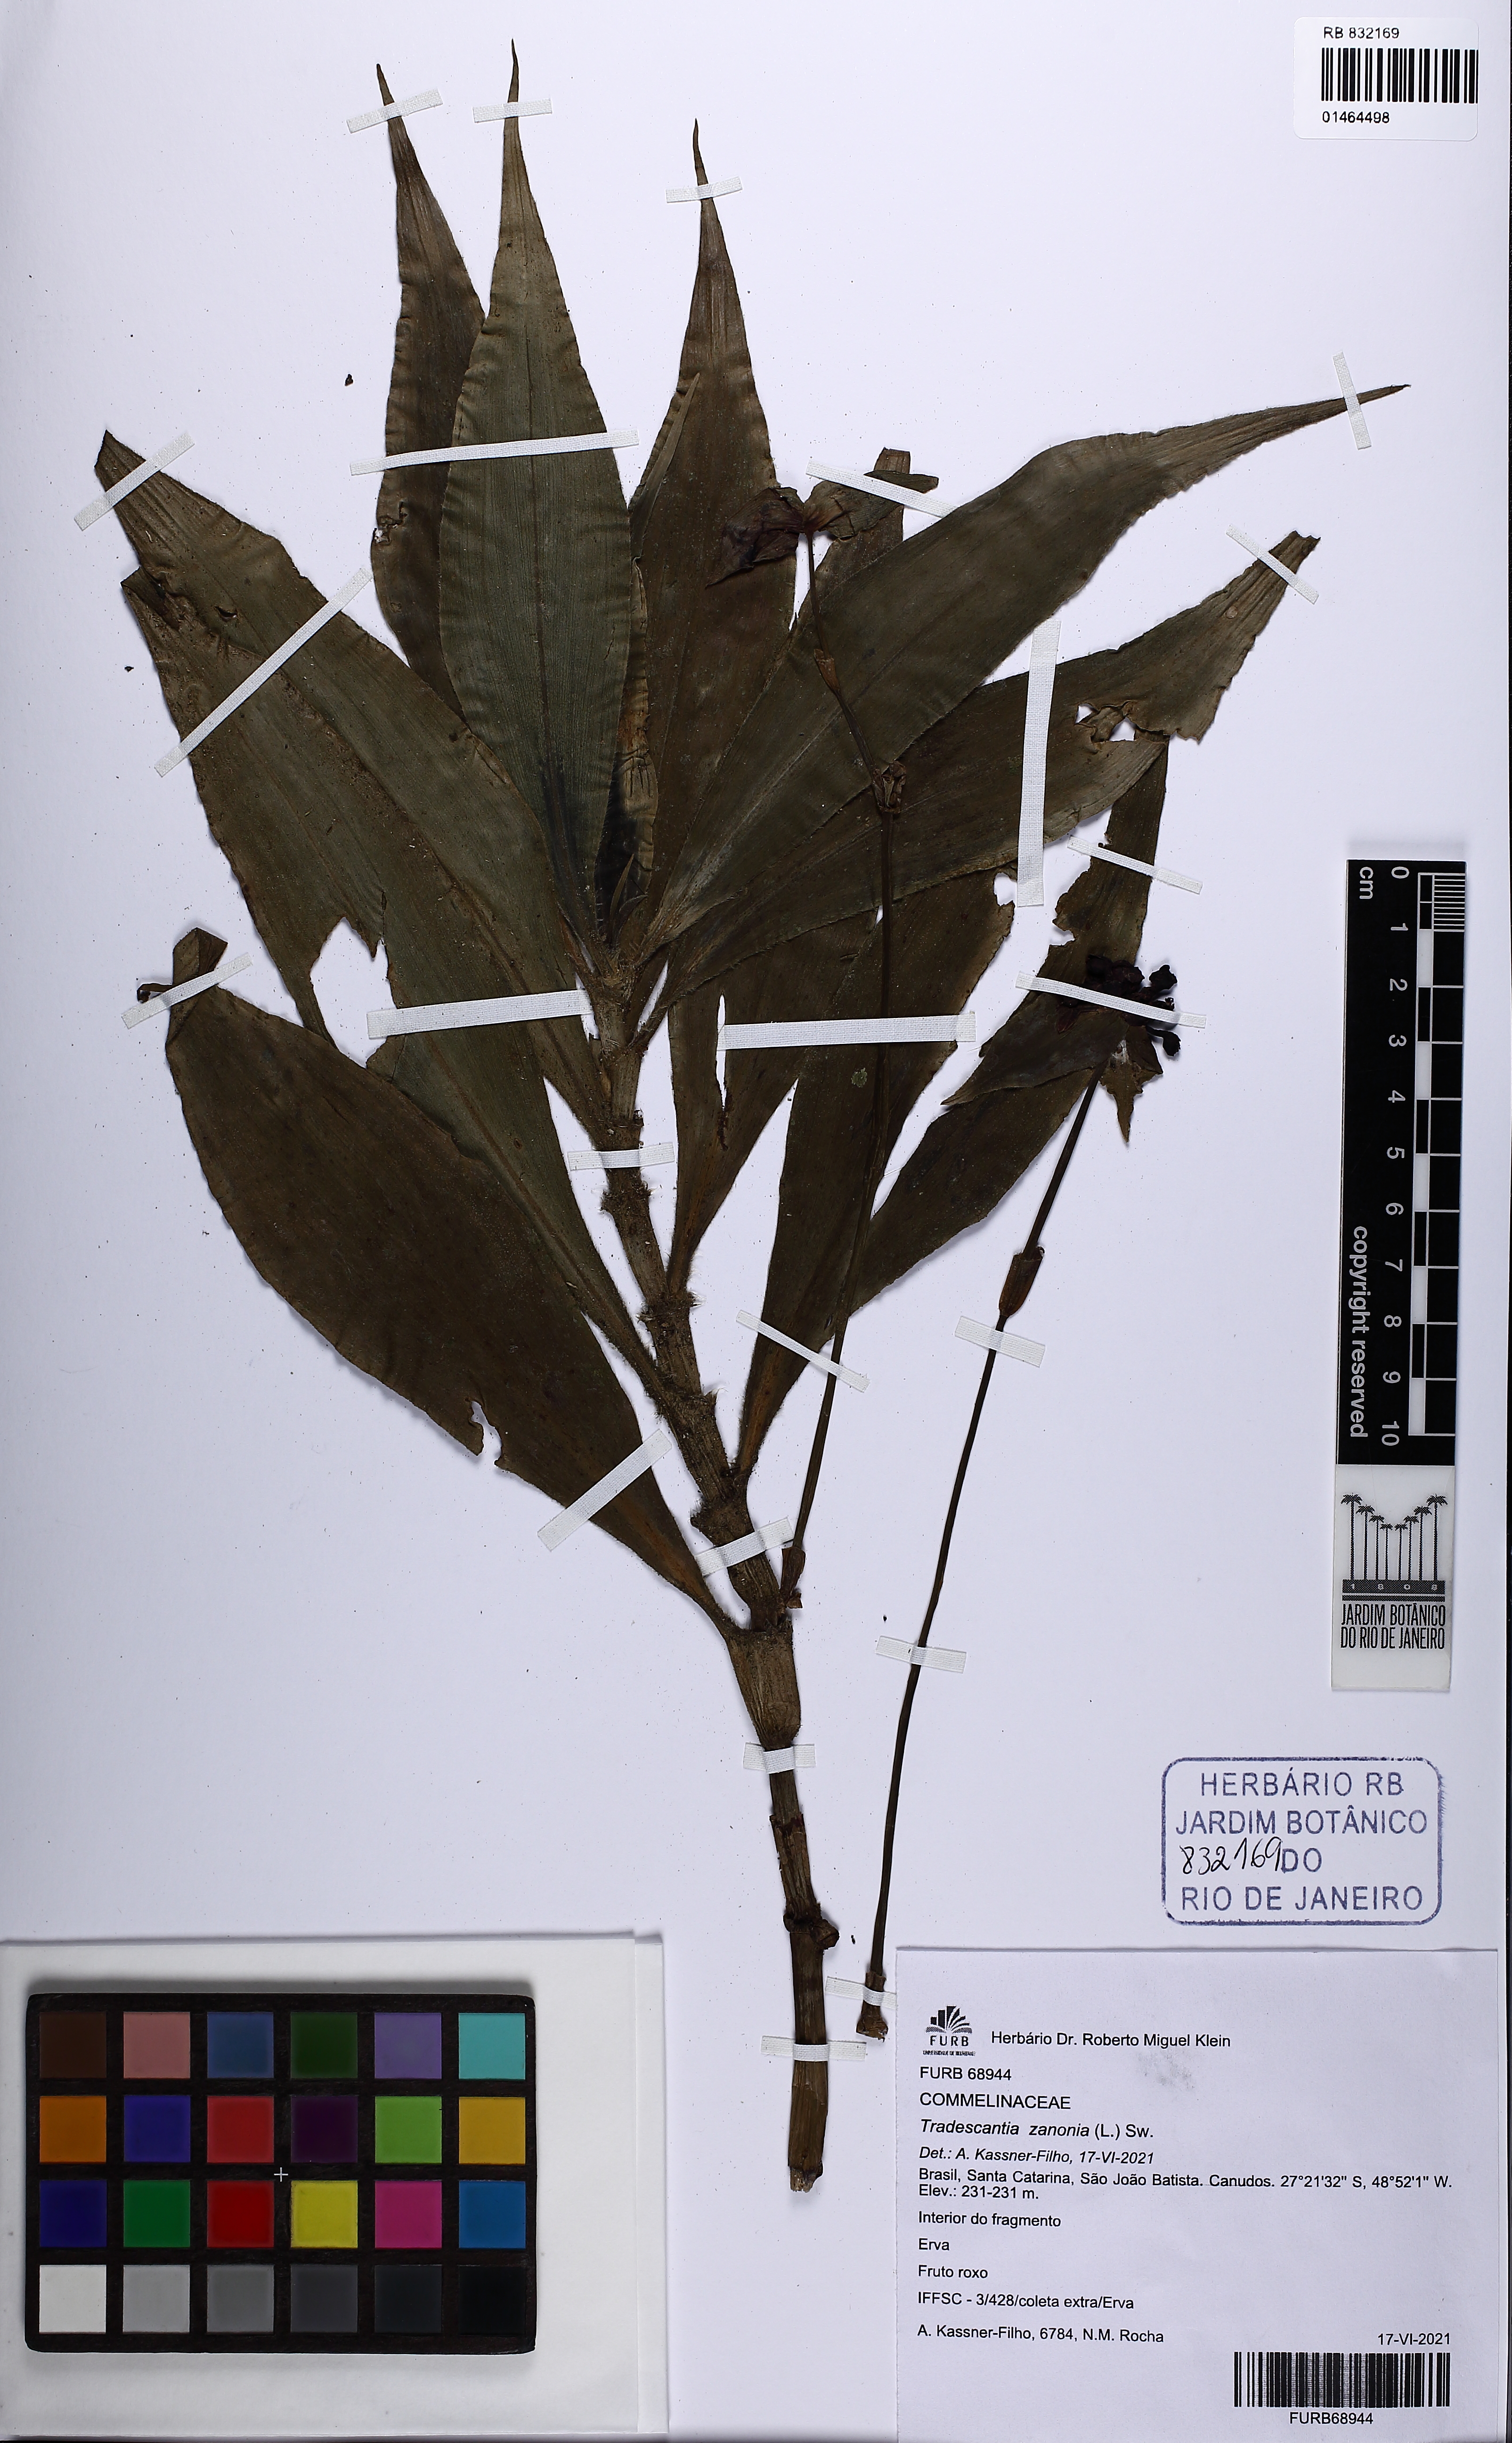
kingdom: Plantae
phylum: Tracheophyta
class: Liliopsida
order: Commelinales
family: Commelinaceae
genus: Tradescantia
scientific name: Tradescantia zanonia
